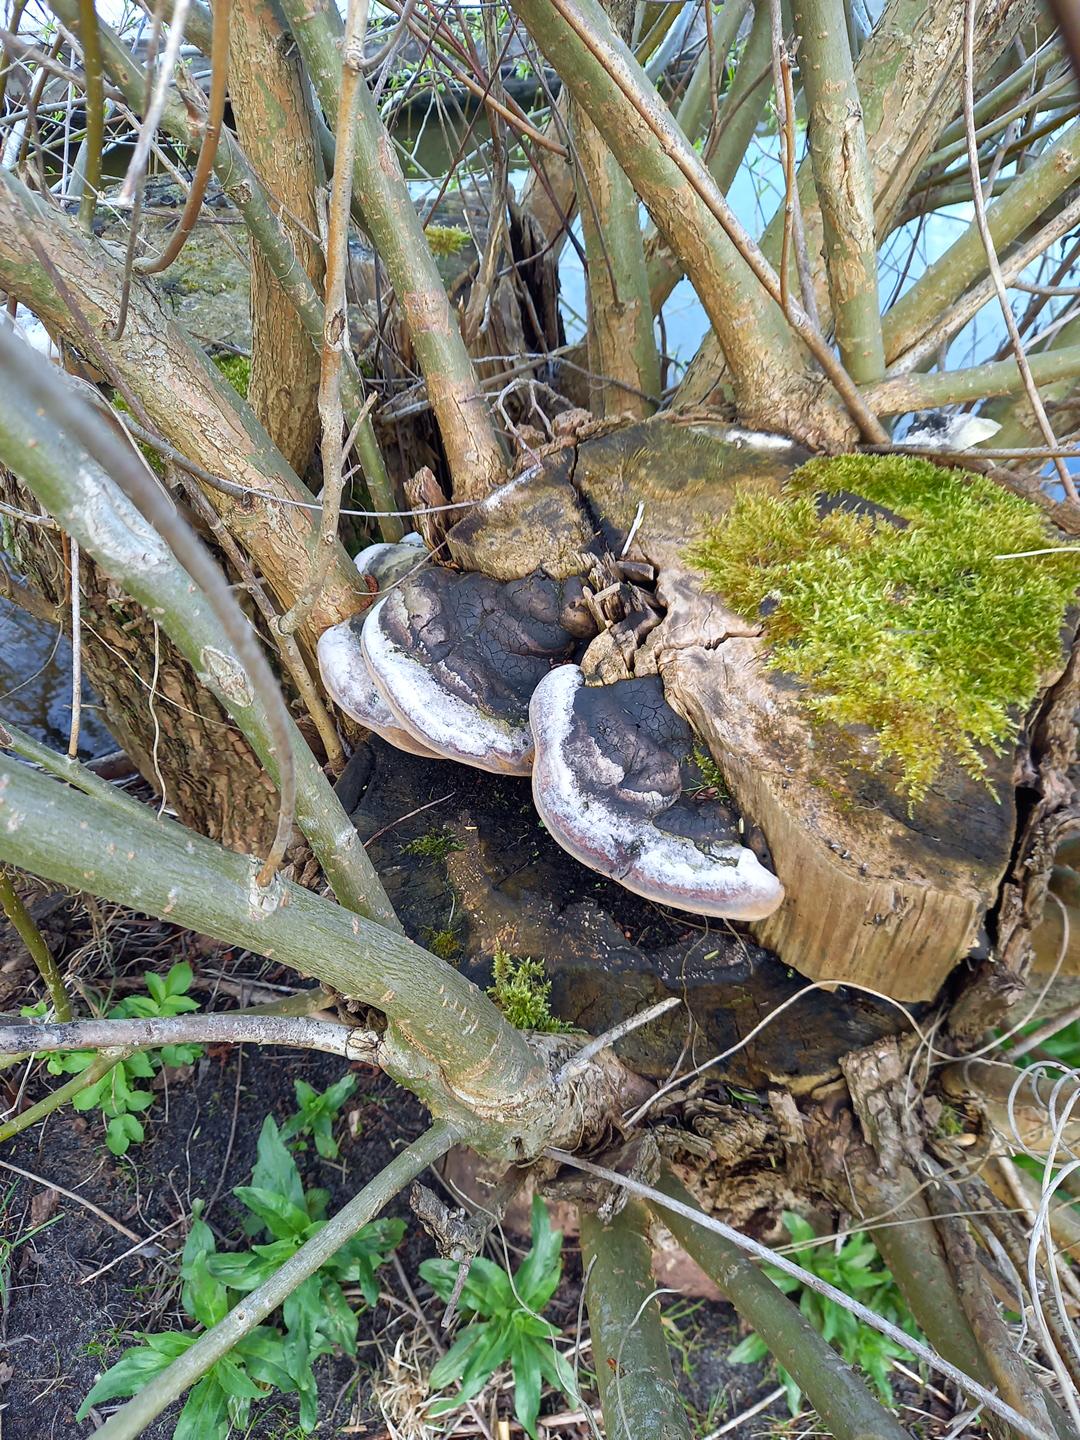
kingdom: Fungi
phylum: Basidiomycota
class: Agaricomycetes
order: Hymenochaetales
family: Hymenochaetaceae
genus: Phellinus
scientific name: Phellinus igniarius
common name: almindelig ildporesvamp
